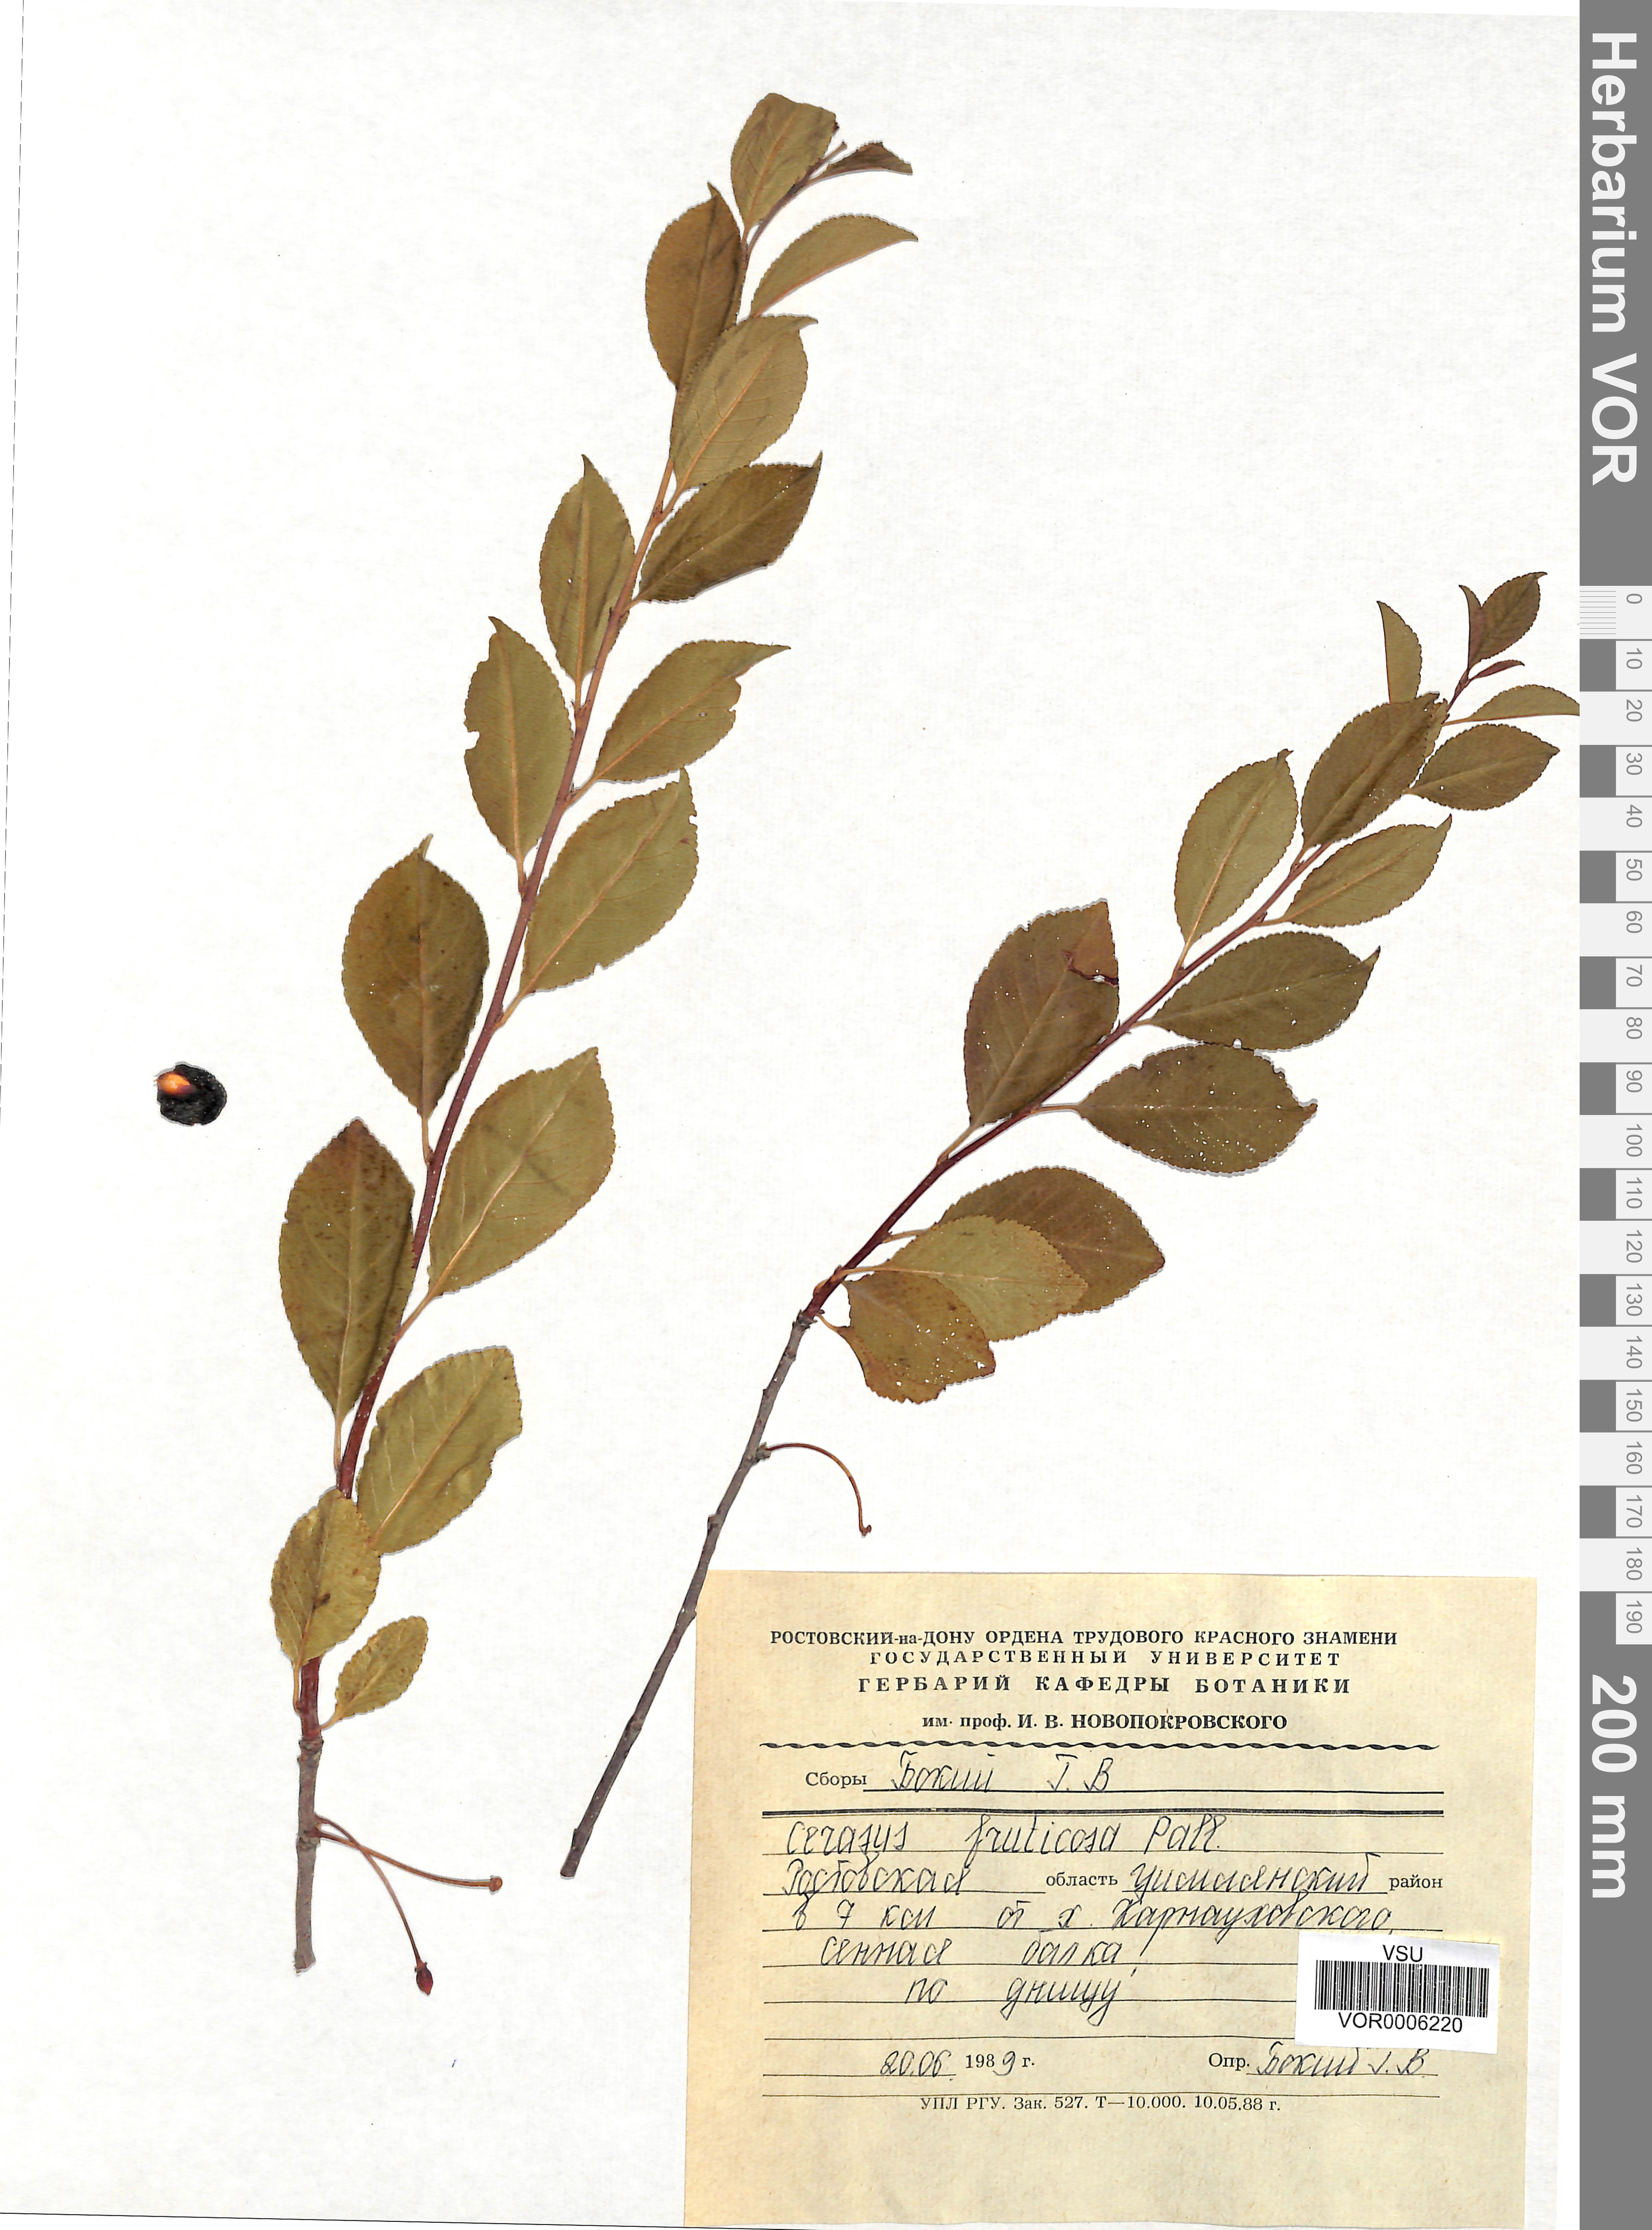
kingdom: Plantae
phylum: Tracheophyta
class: Magnoliopsida
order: Rosales
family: Rosaceae
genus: Prunus
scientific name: Prunus fruticosa
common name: European dwarf cherry
